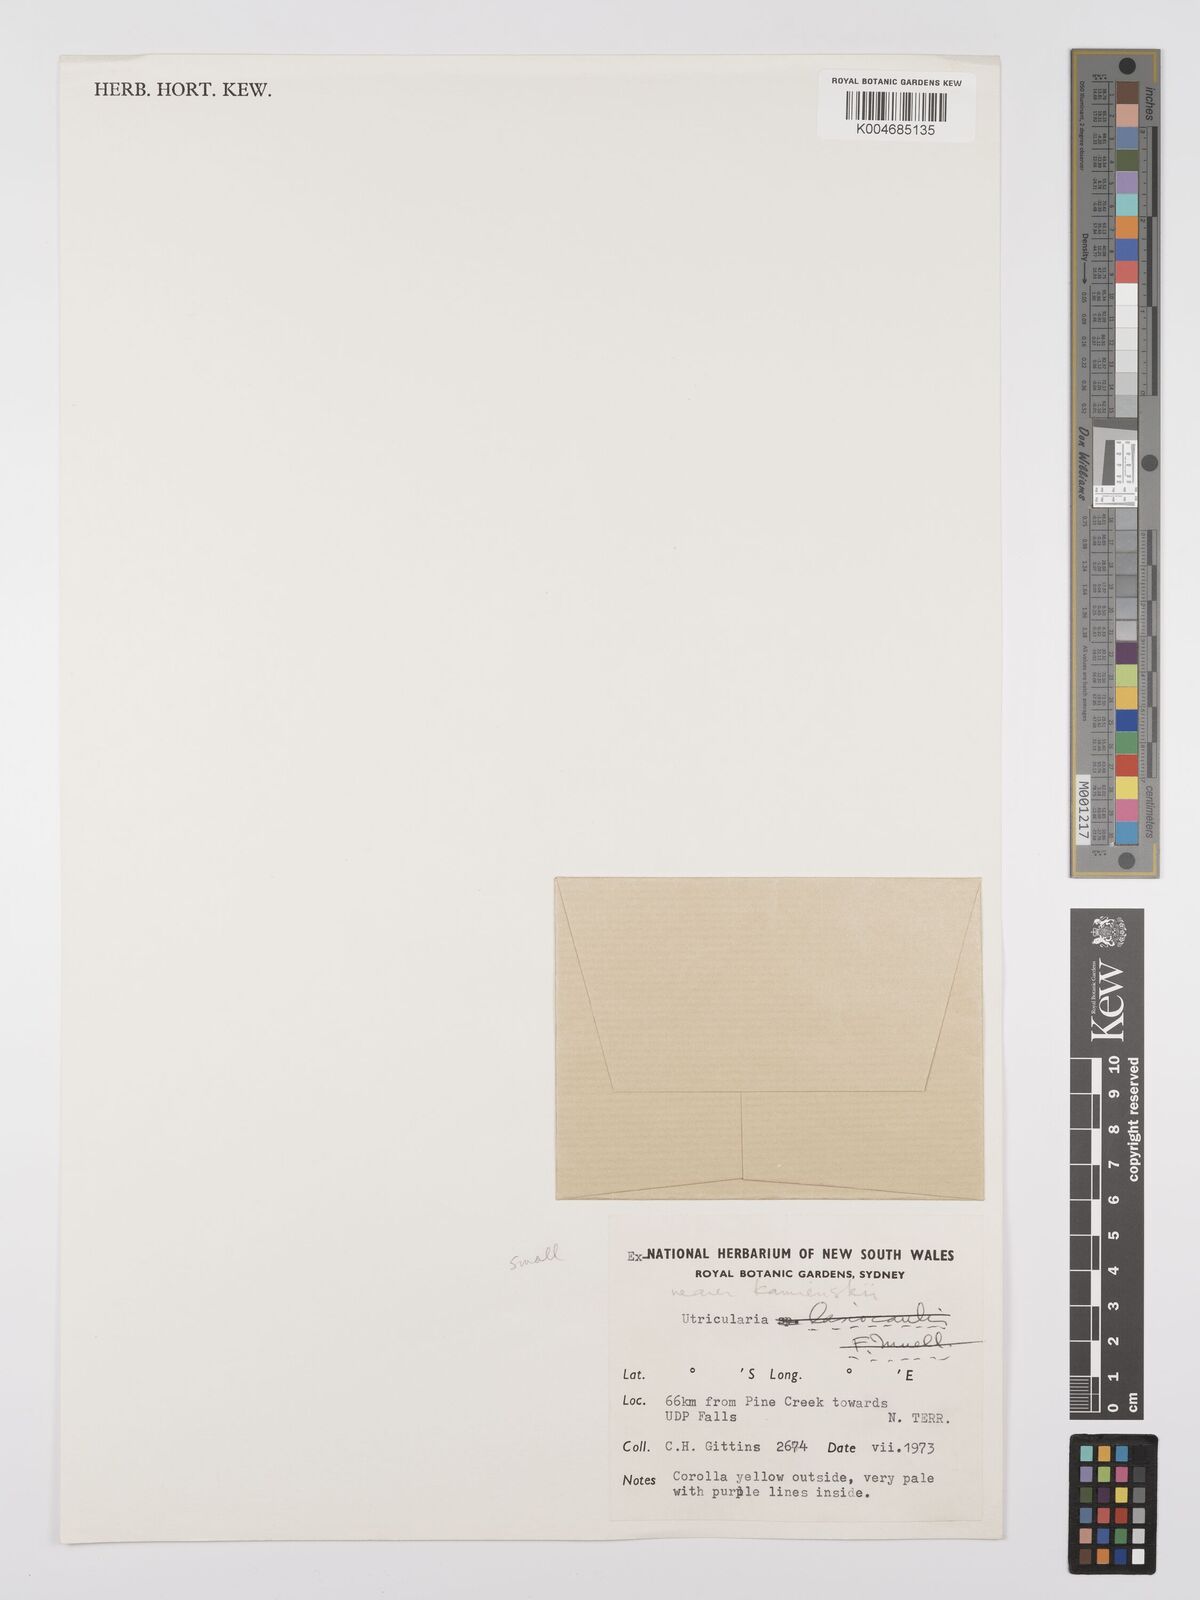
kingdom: Plantae
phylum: Tracheophyta
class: Magnoliopsida
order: Lamiales
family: Lentibulariaceae
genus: Utricularia
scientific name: Utricularia lasiocaulis
